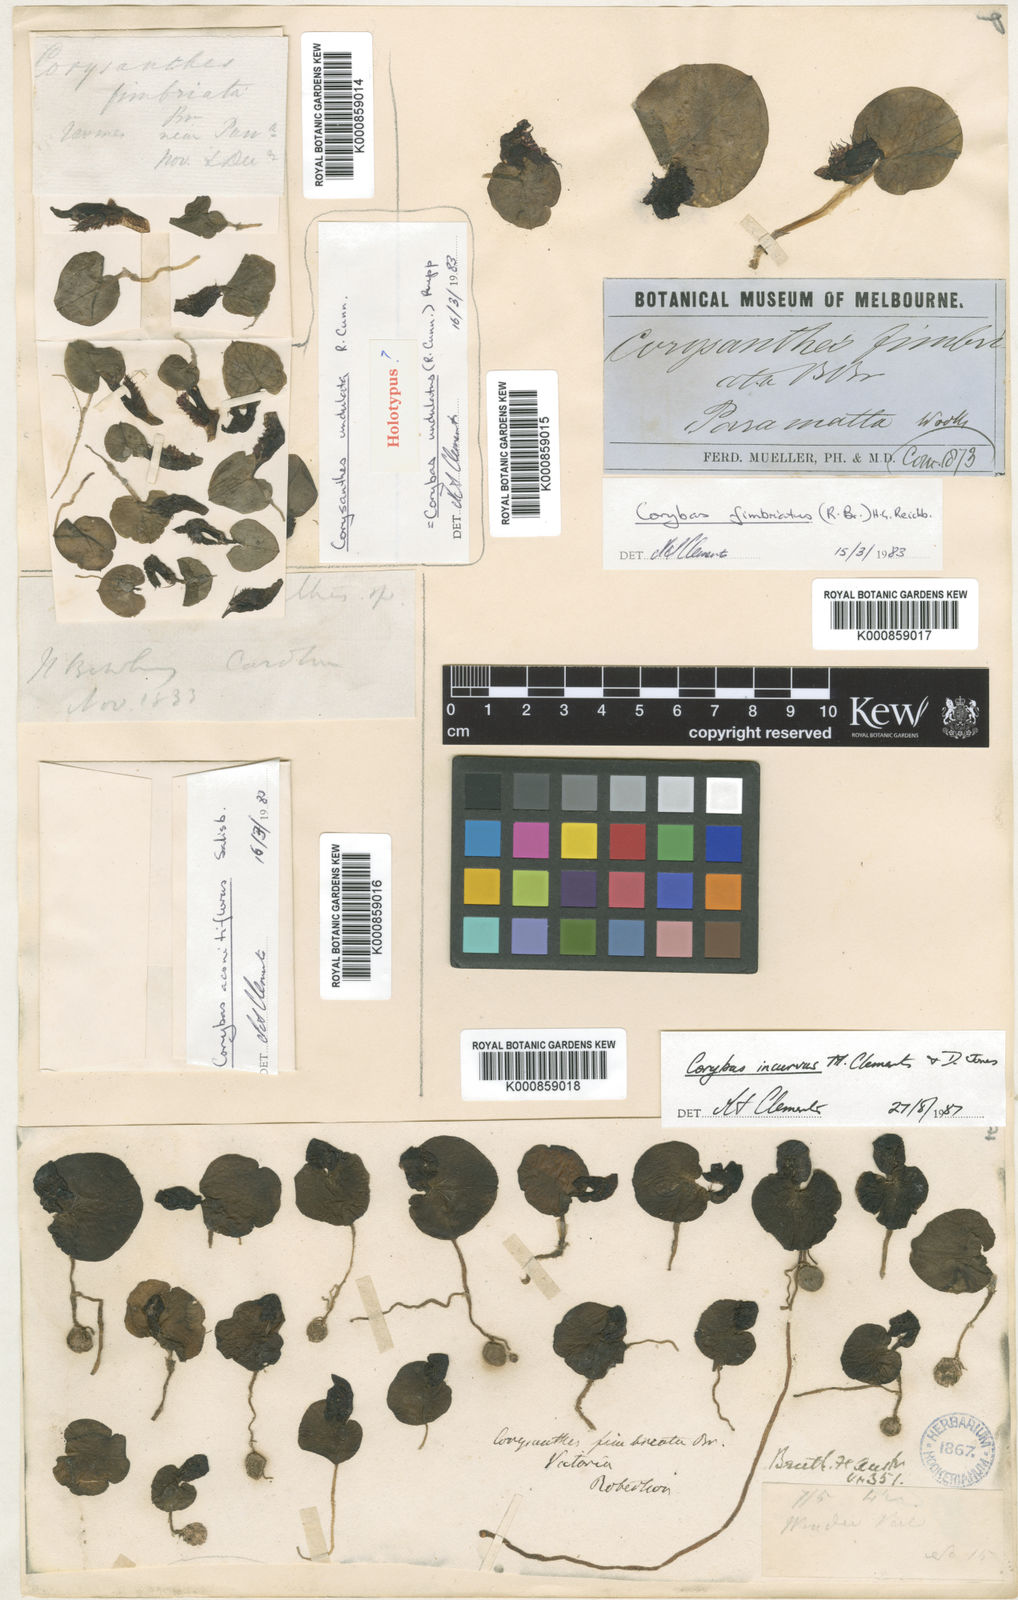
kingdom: Plantae
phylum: Tracheophyta
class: Liliopsida
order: Asparagales
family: Orchidaceae
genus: Corybas
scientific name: Corybas pruinosus
